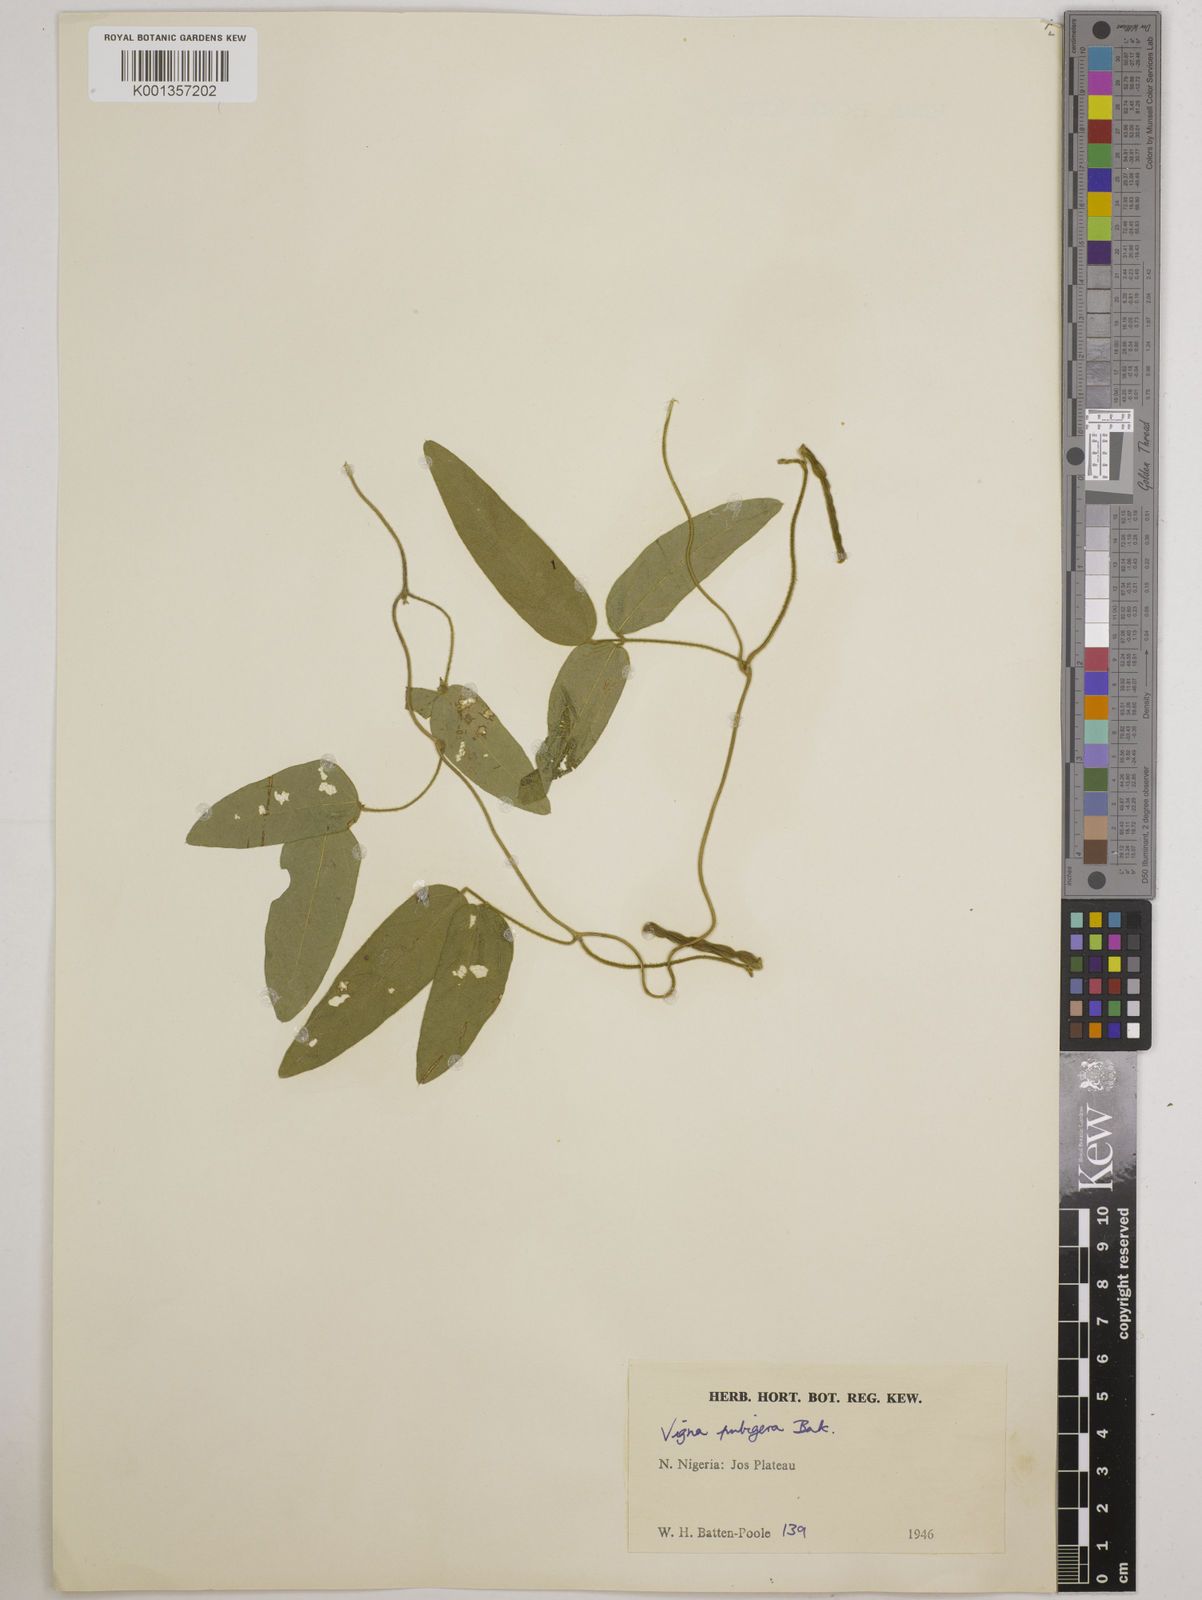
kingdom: Plantae
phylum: Tracheophyta
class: Magnoliopsida
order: Fabales
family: Fabaceae
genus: Vigna
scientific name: Vigna ambacensis
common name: Tsarkiyan zomo
